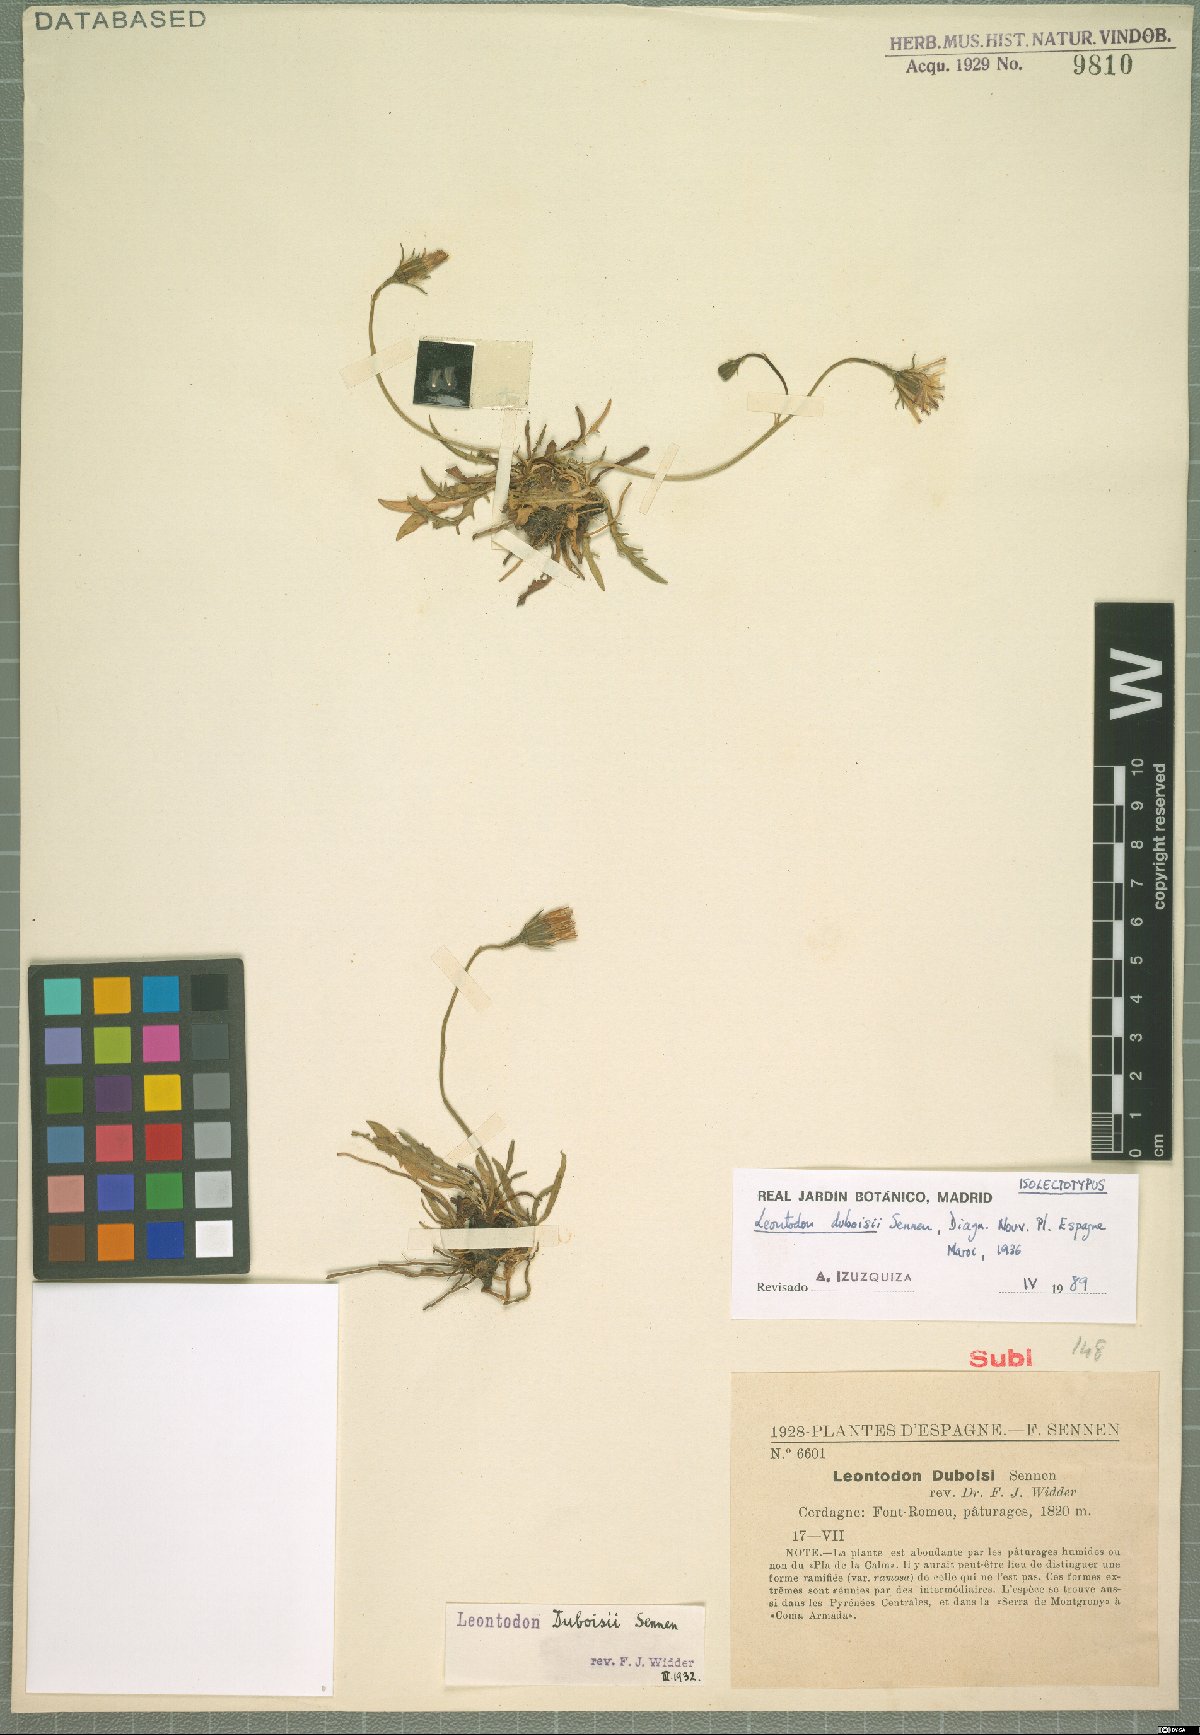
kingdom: Plantae
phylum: Tracheophyta
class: Magnoliopsida
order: Asterales
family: Asteraceae
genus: Scorzoneroides
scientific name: Scorzoneroides carpetana
